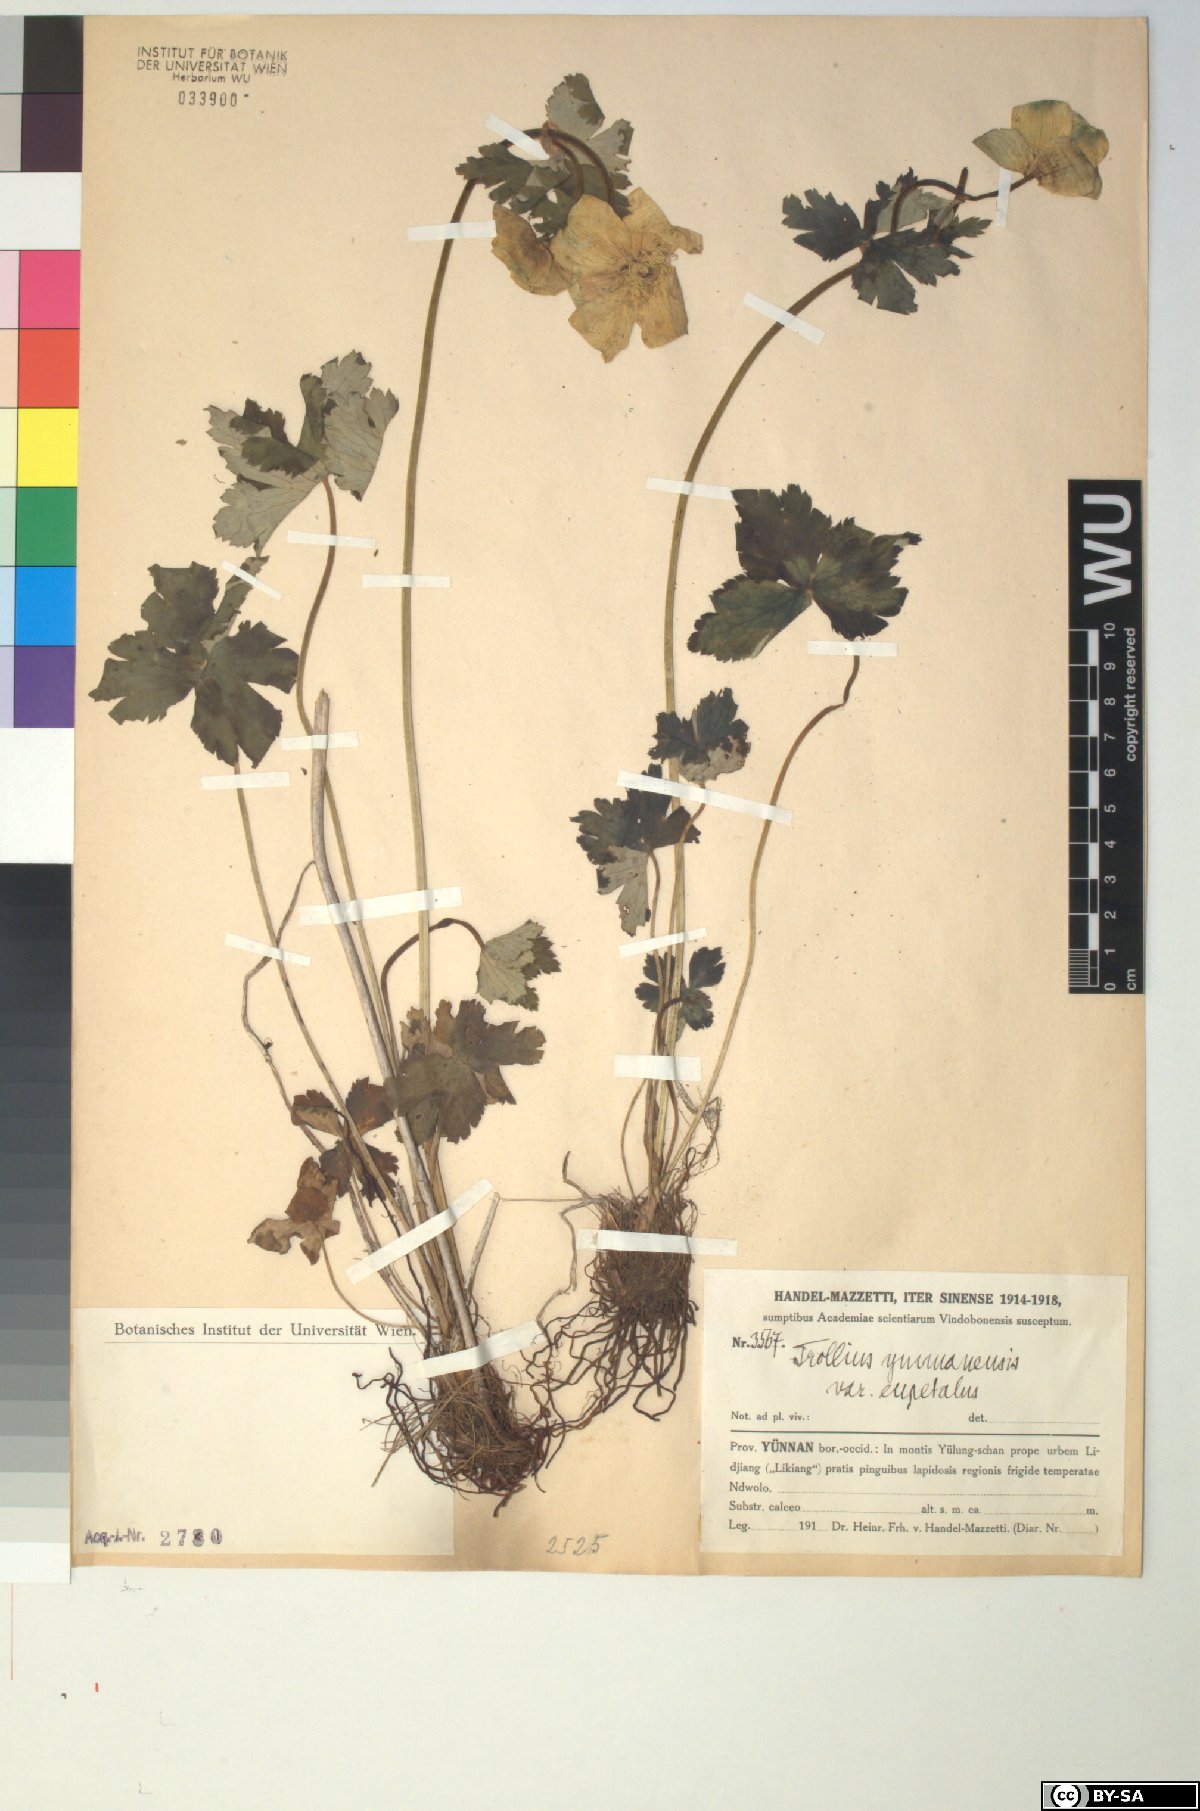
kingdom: Plantae
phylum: Tracheophyta
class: Magnoliopsida
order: Ranunculales
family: Ranunculaceae
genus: Trollius
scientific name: Trollius yunnanensis
